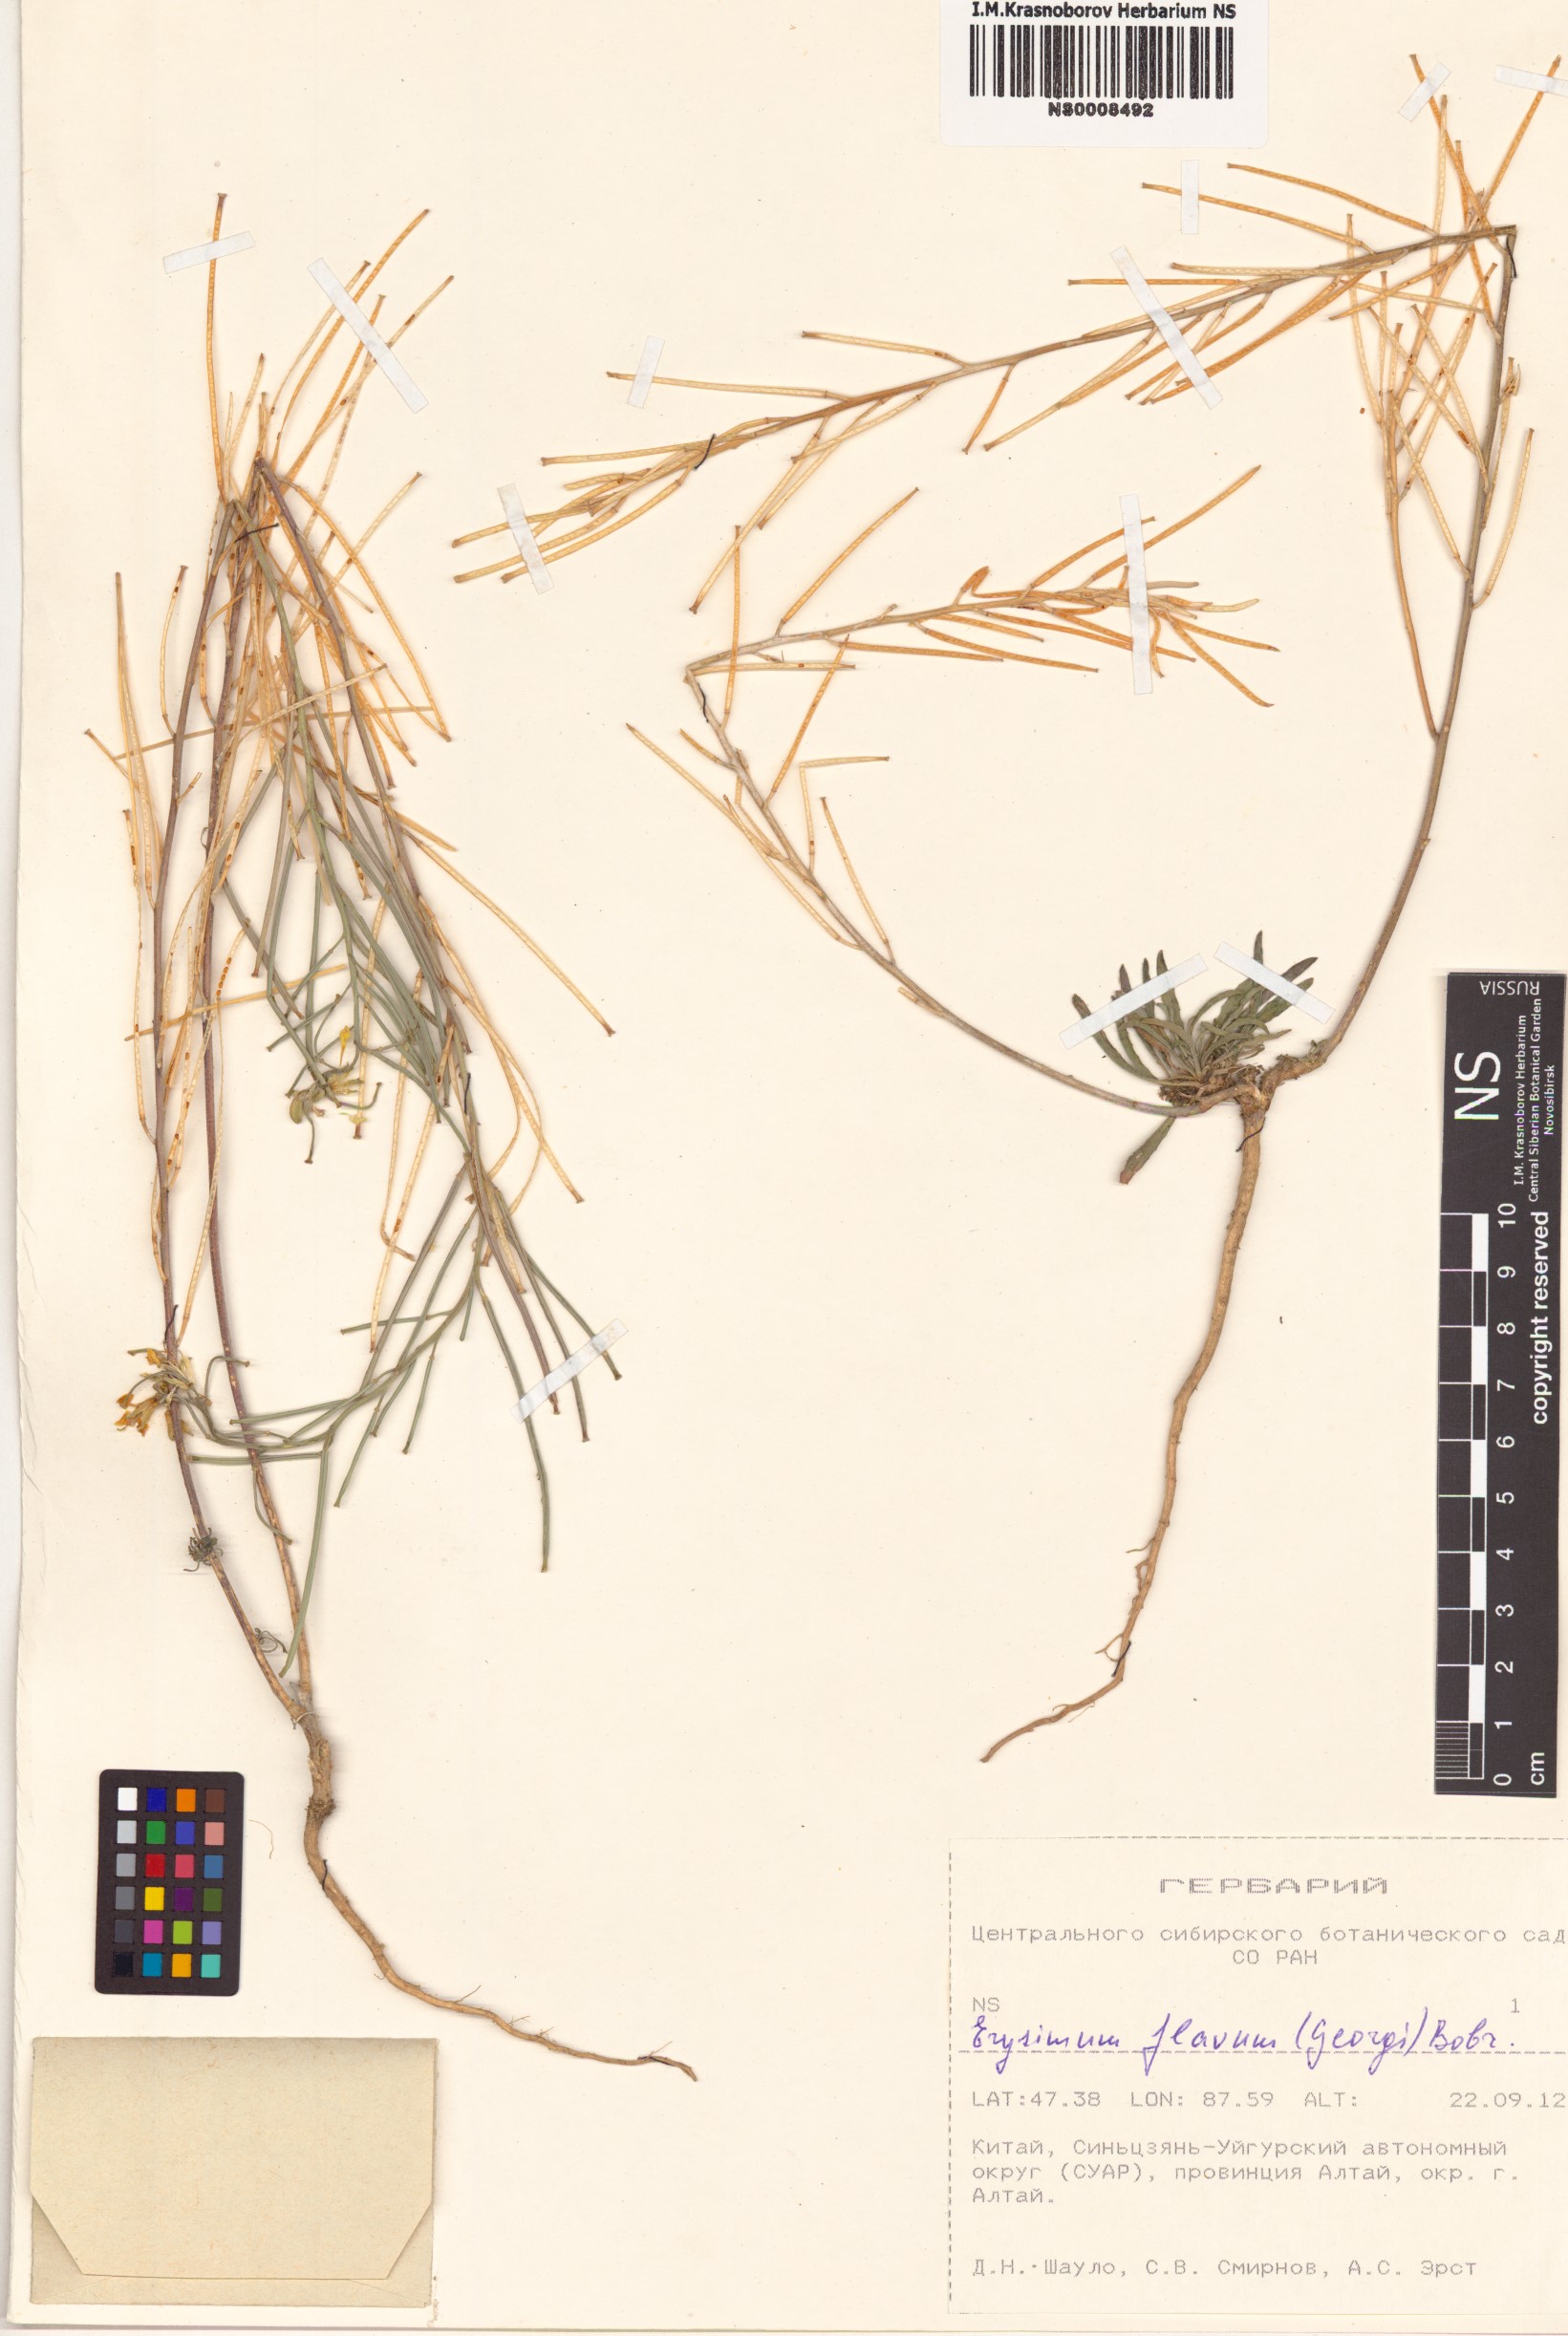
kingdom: Plantae
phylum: Tracheophyta
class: Magnoliopsida
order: Brassicales
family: Brassicaceae
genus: Erysimum
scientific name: Erysimum flavum
